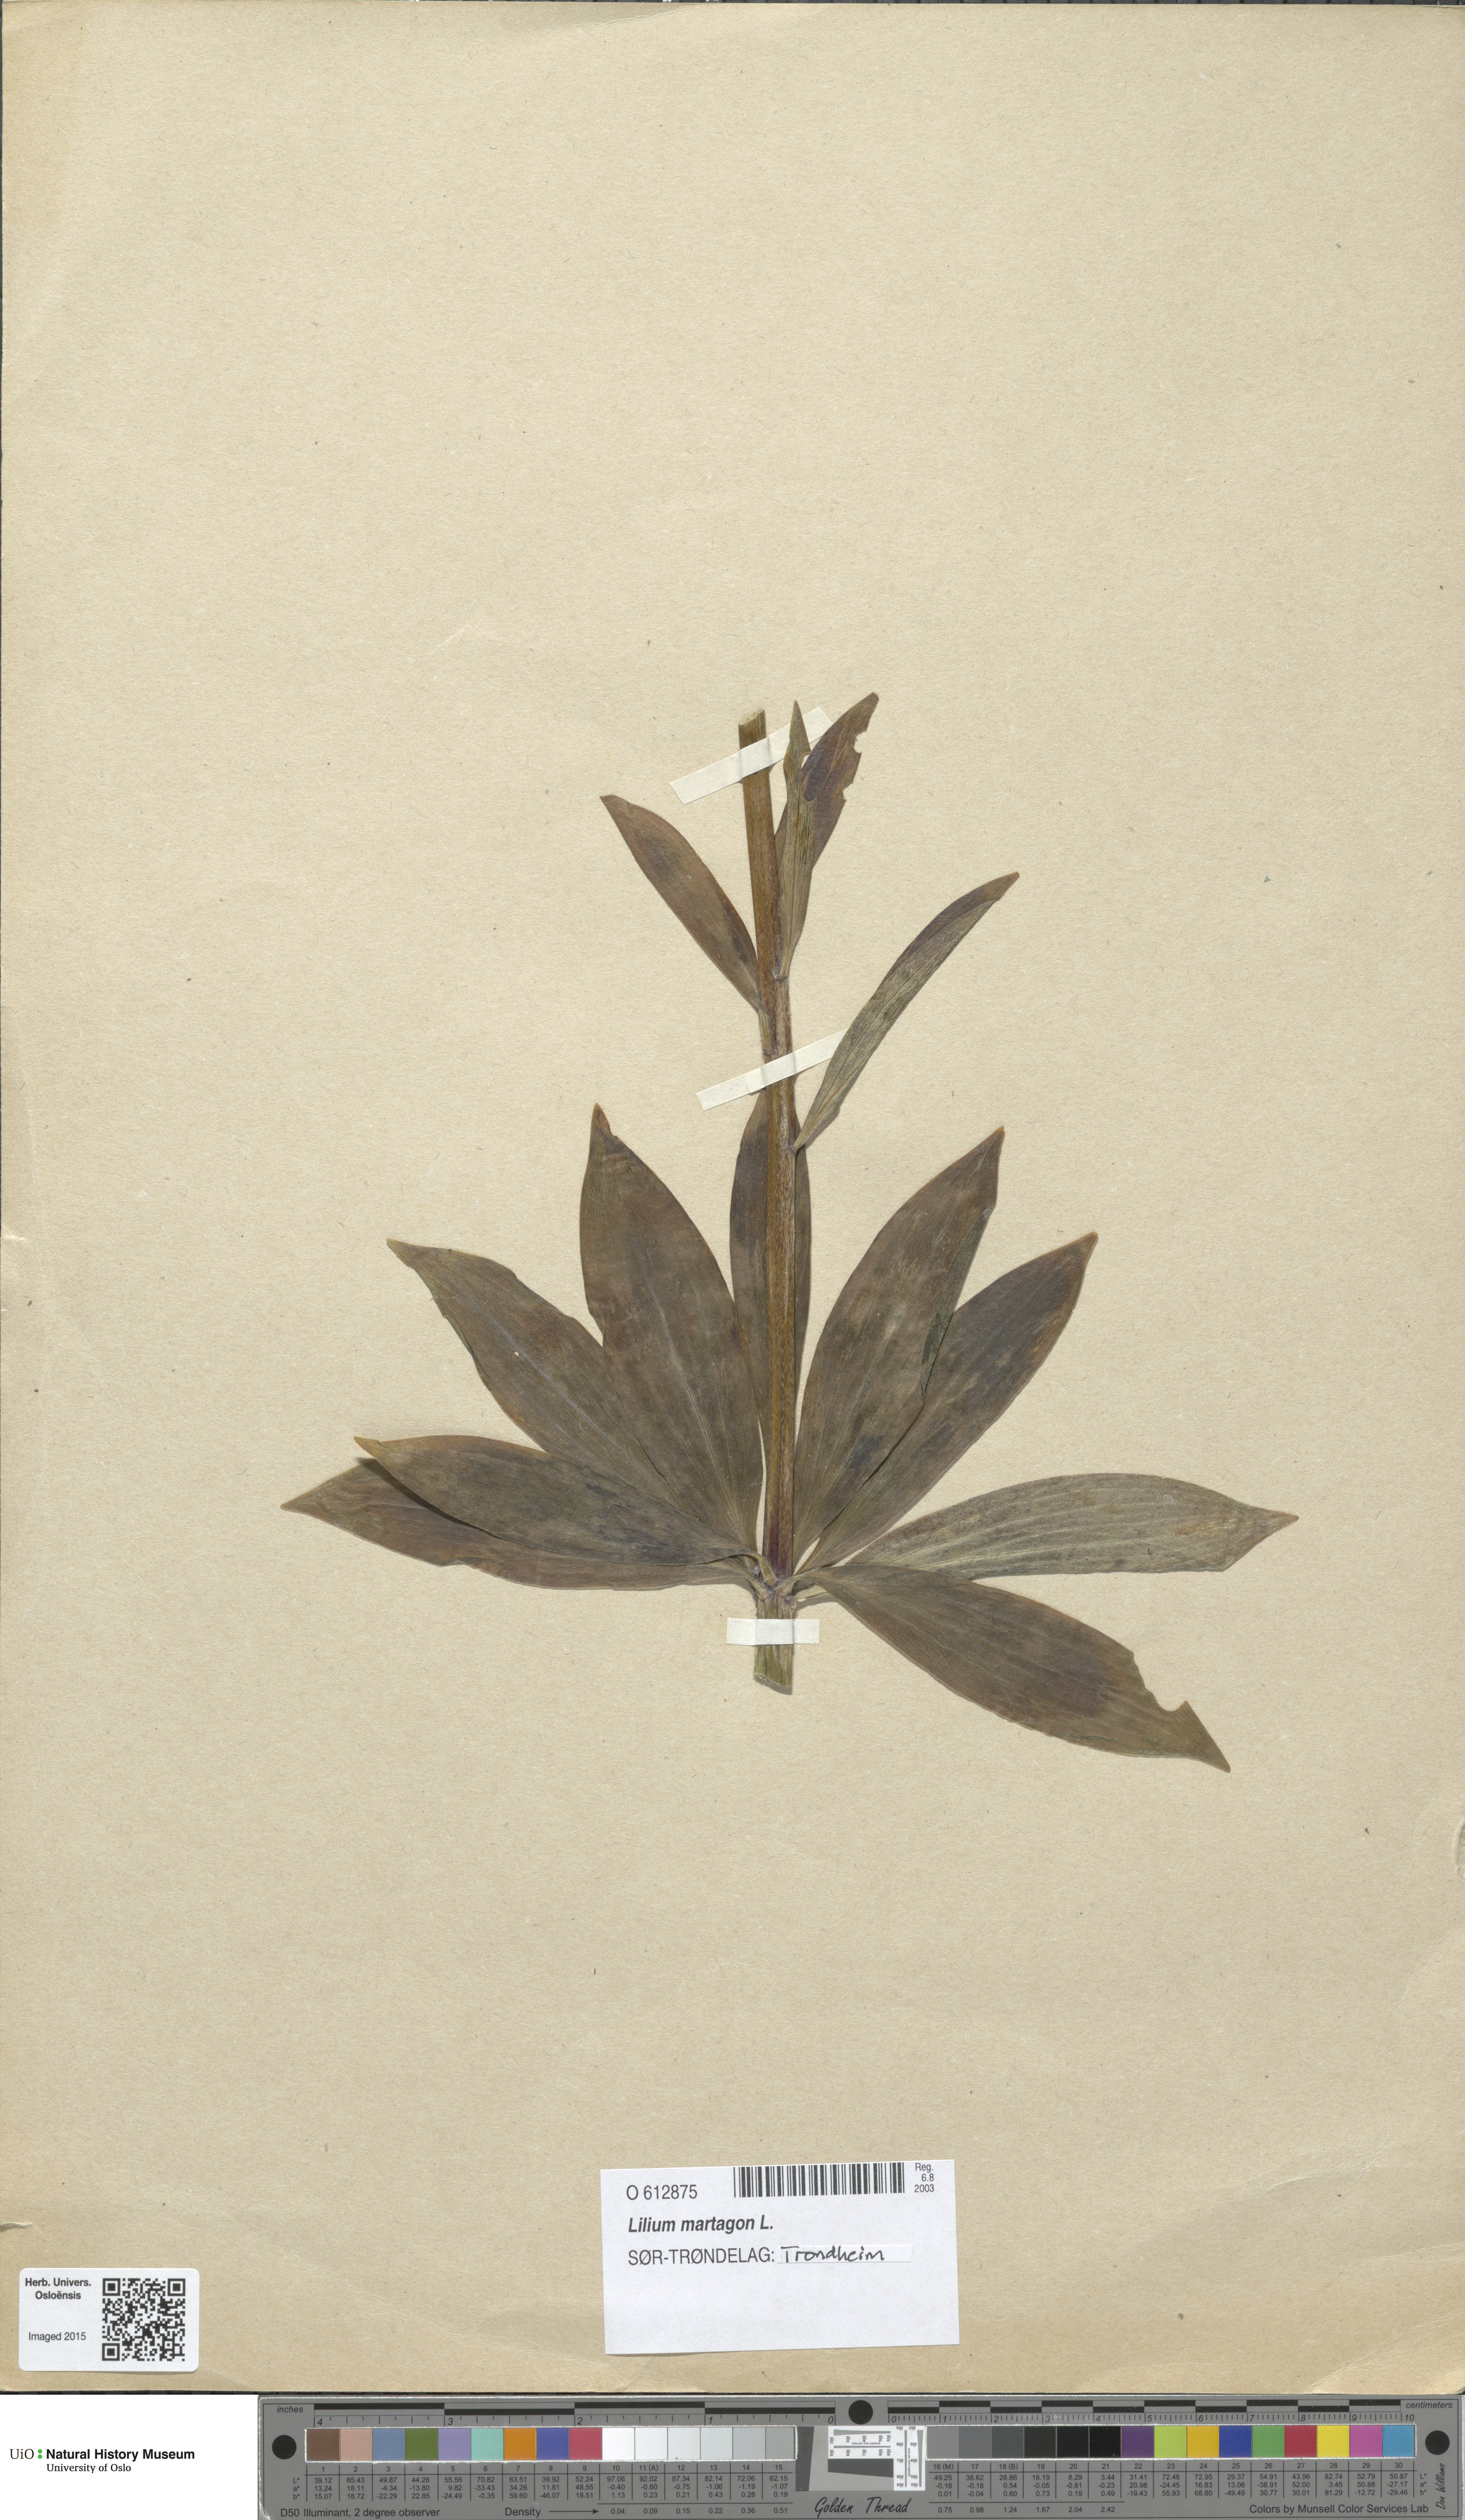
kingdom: Plantae
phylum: Tracheophyta
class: Liliopsida
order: Liliales
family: Liliaceae
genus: Lilium
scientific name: Lilium martagon
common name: Martagon lily
